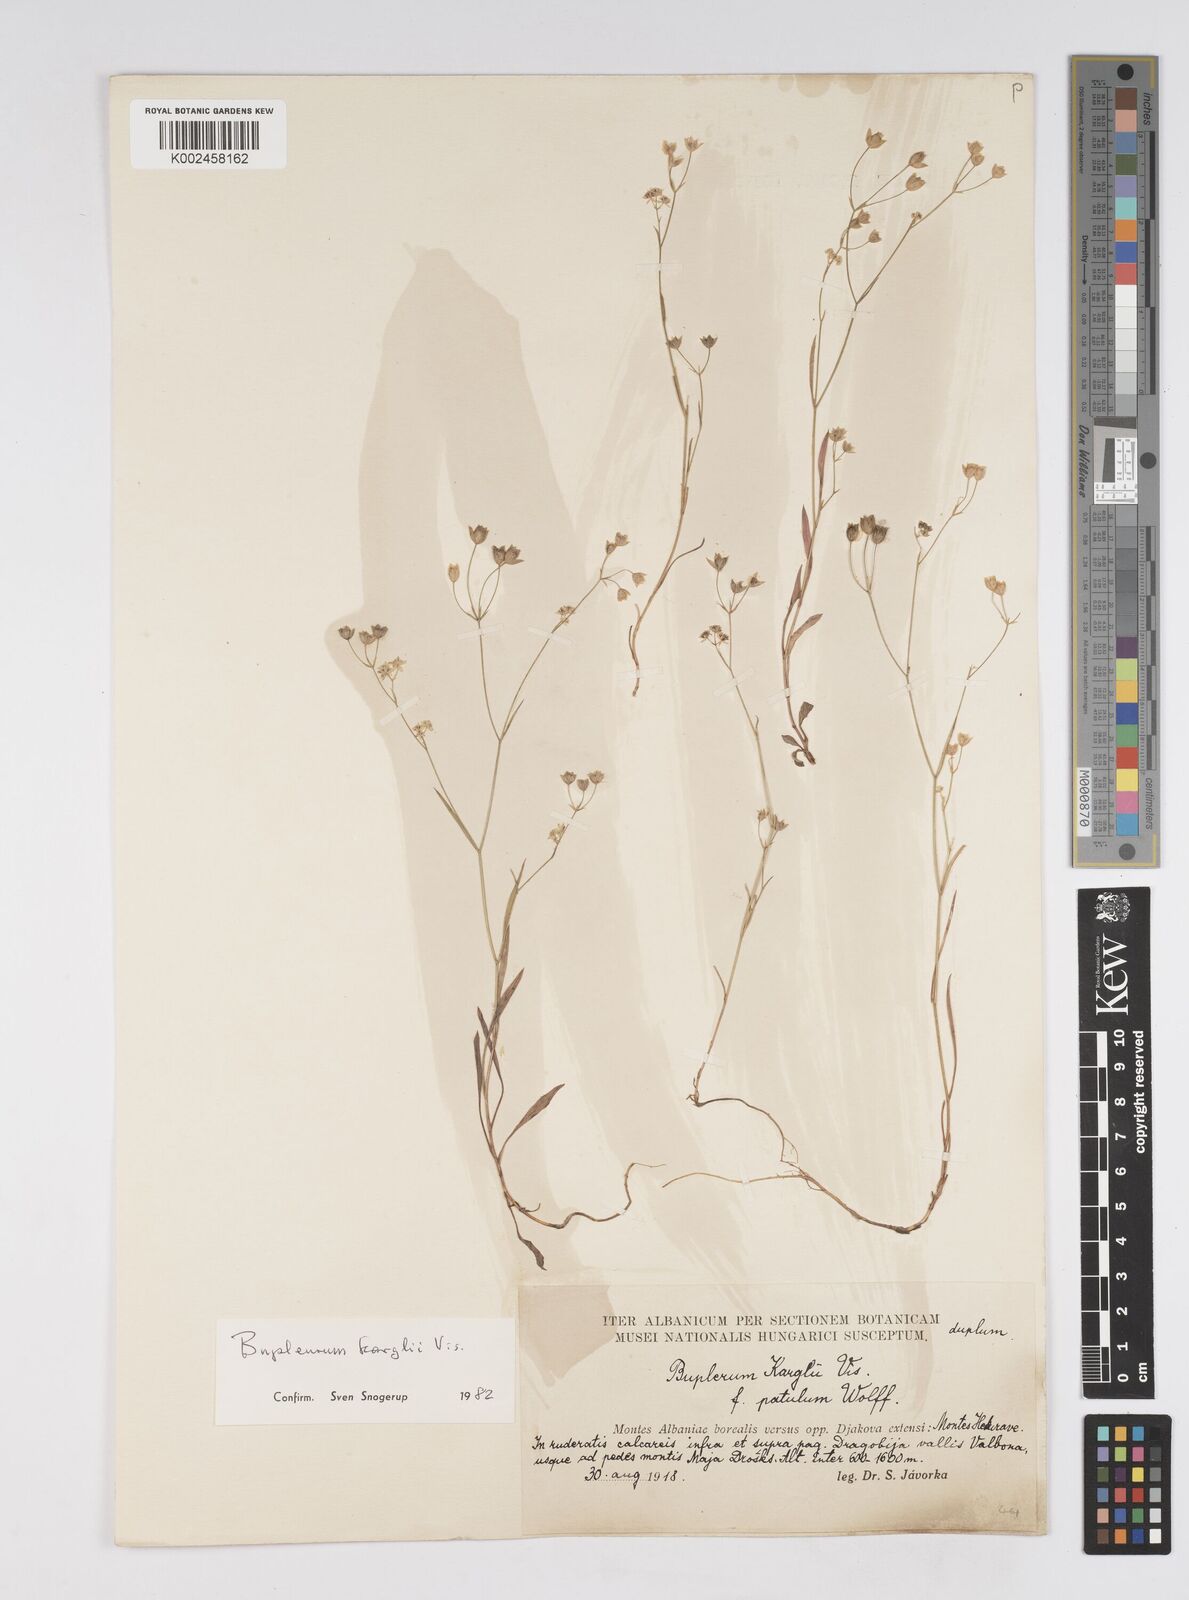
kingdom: Plantae
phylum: Tracheophyta
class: Magnoliopsida
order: Apiales
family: Apiaceae
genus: Bupleurum
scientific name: Bupleurum karglii
